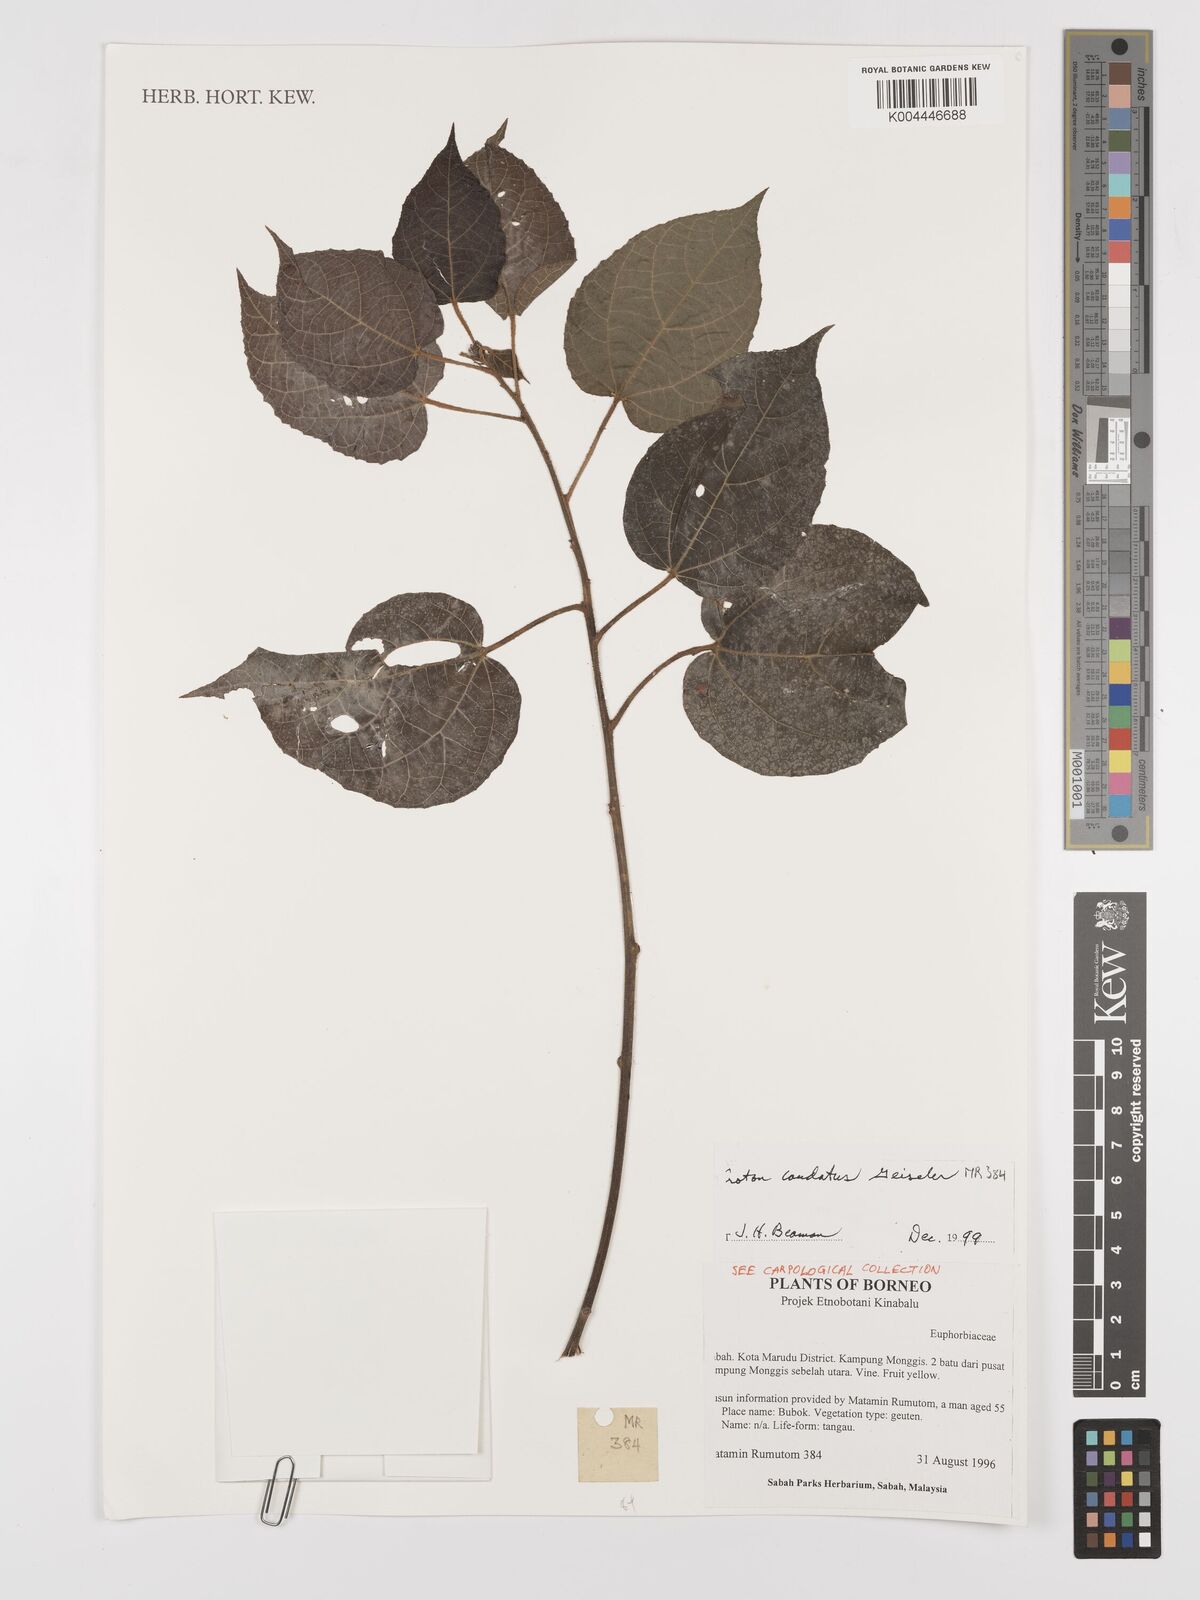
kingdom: Plantae
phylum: Tracheophyta
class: Magnoliopsida
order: Malpighiales
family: Euphorbiaceae
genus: Croton
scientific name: Croton caudatus
